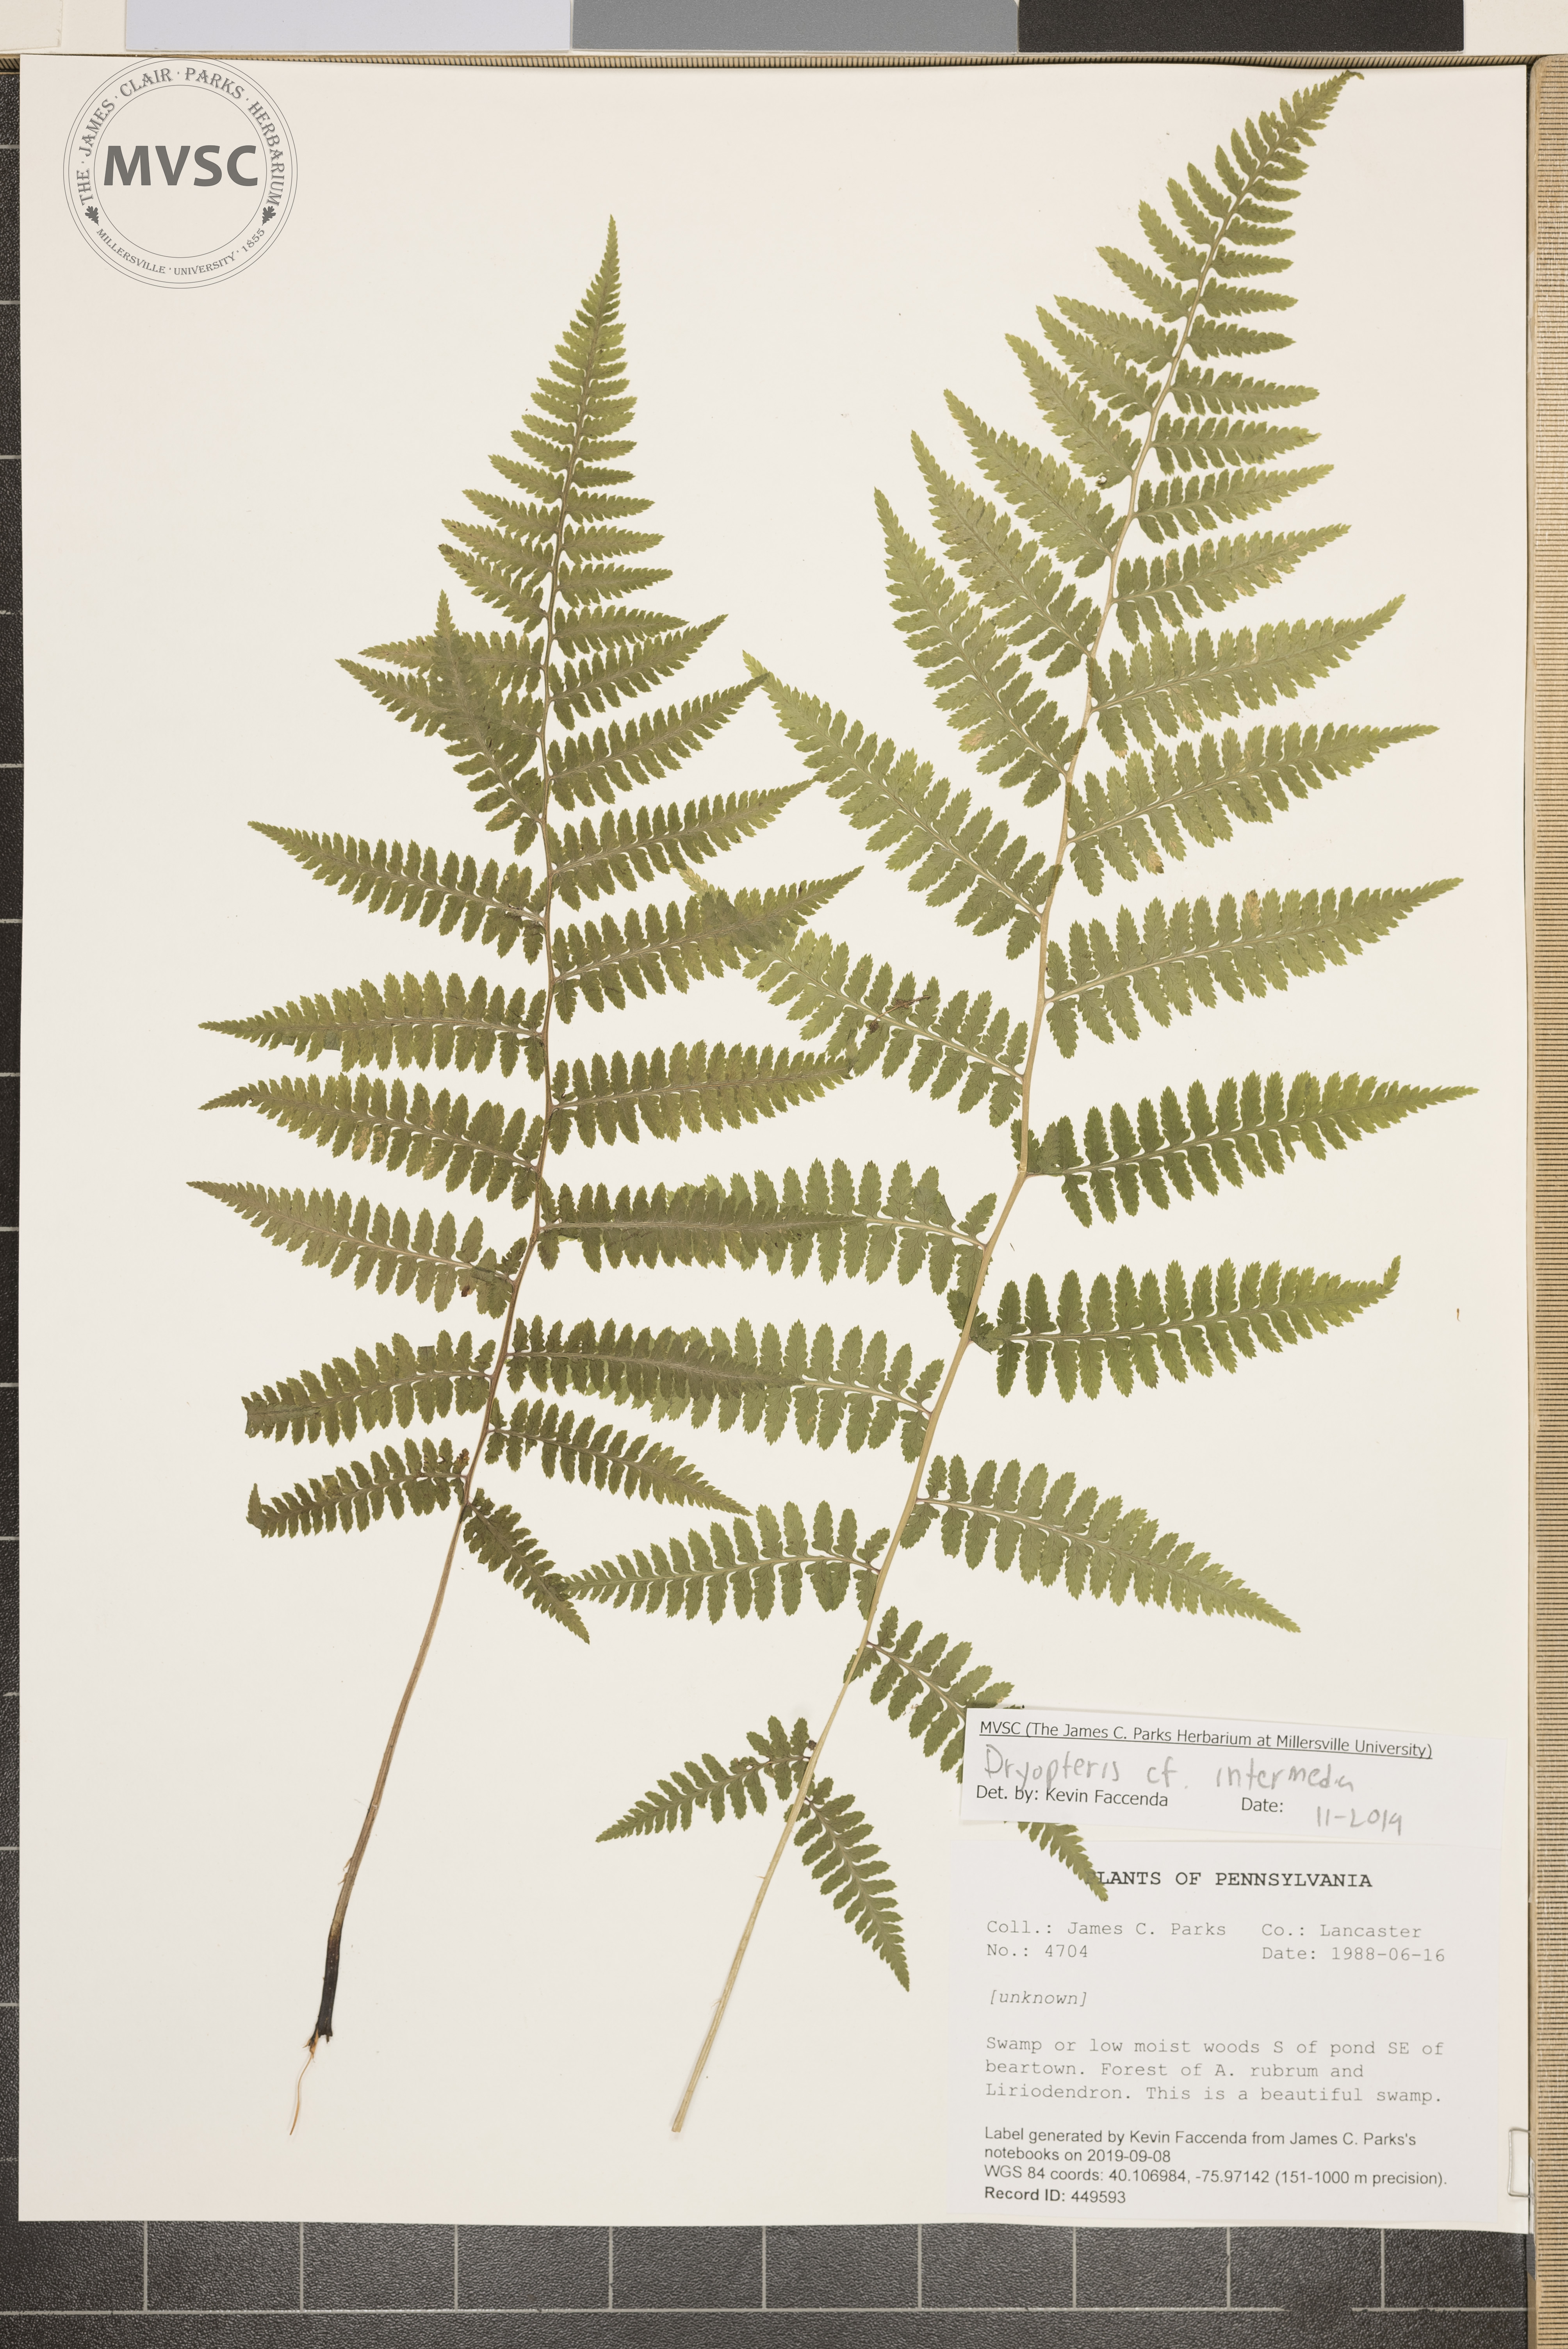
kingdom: Plantae
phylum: Tracheophyta
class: Polypodiopsida
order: Polypodiales
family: Dryopteridaceae
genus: Dryopteris
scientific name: Dryopteris intermedia
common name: Evergreen wood fern
